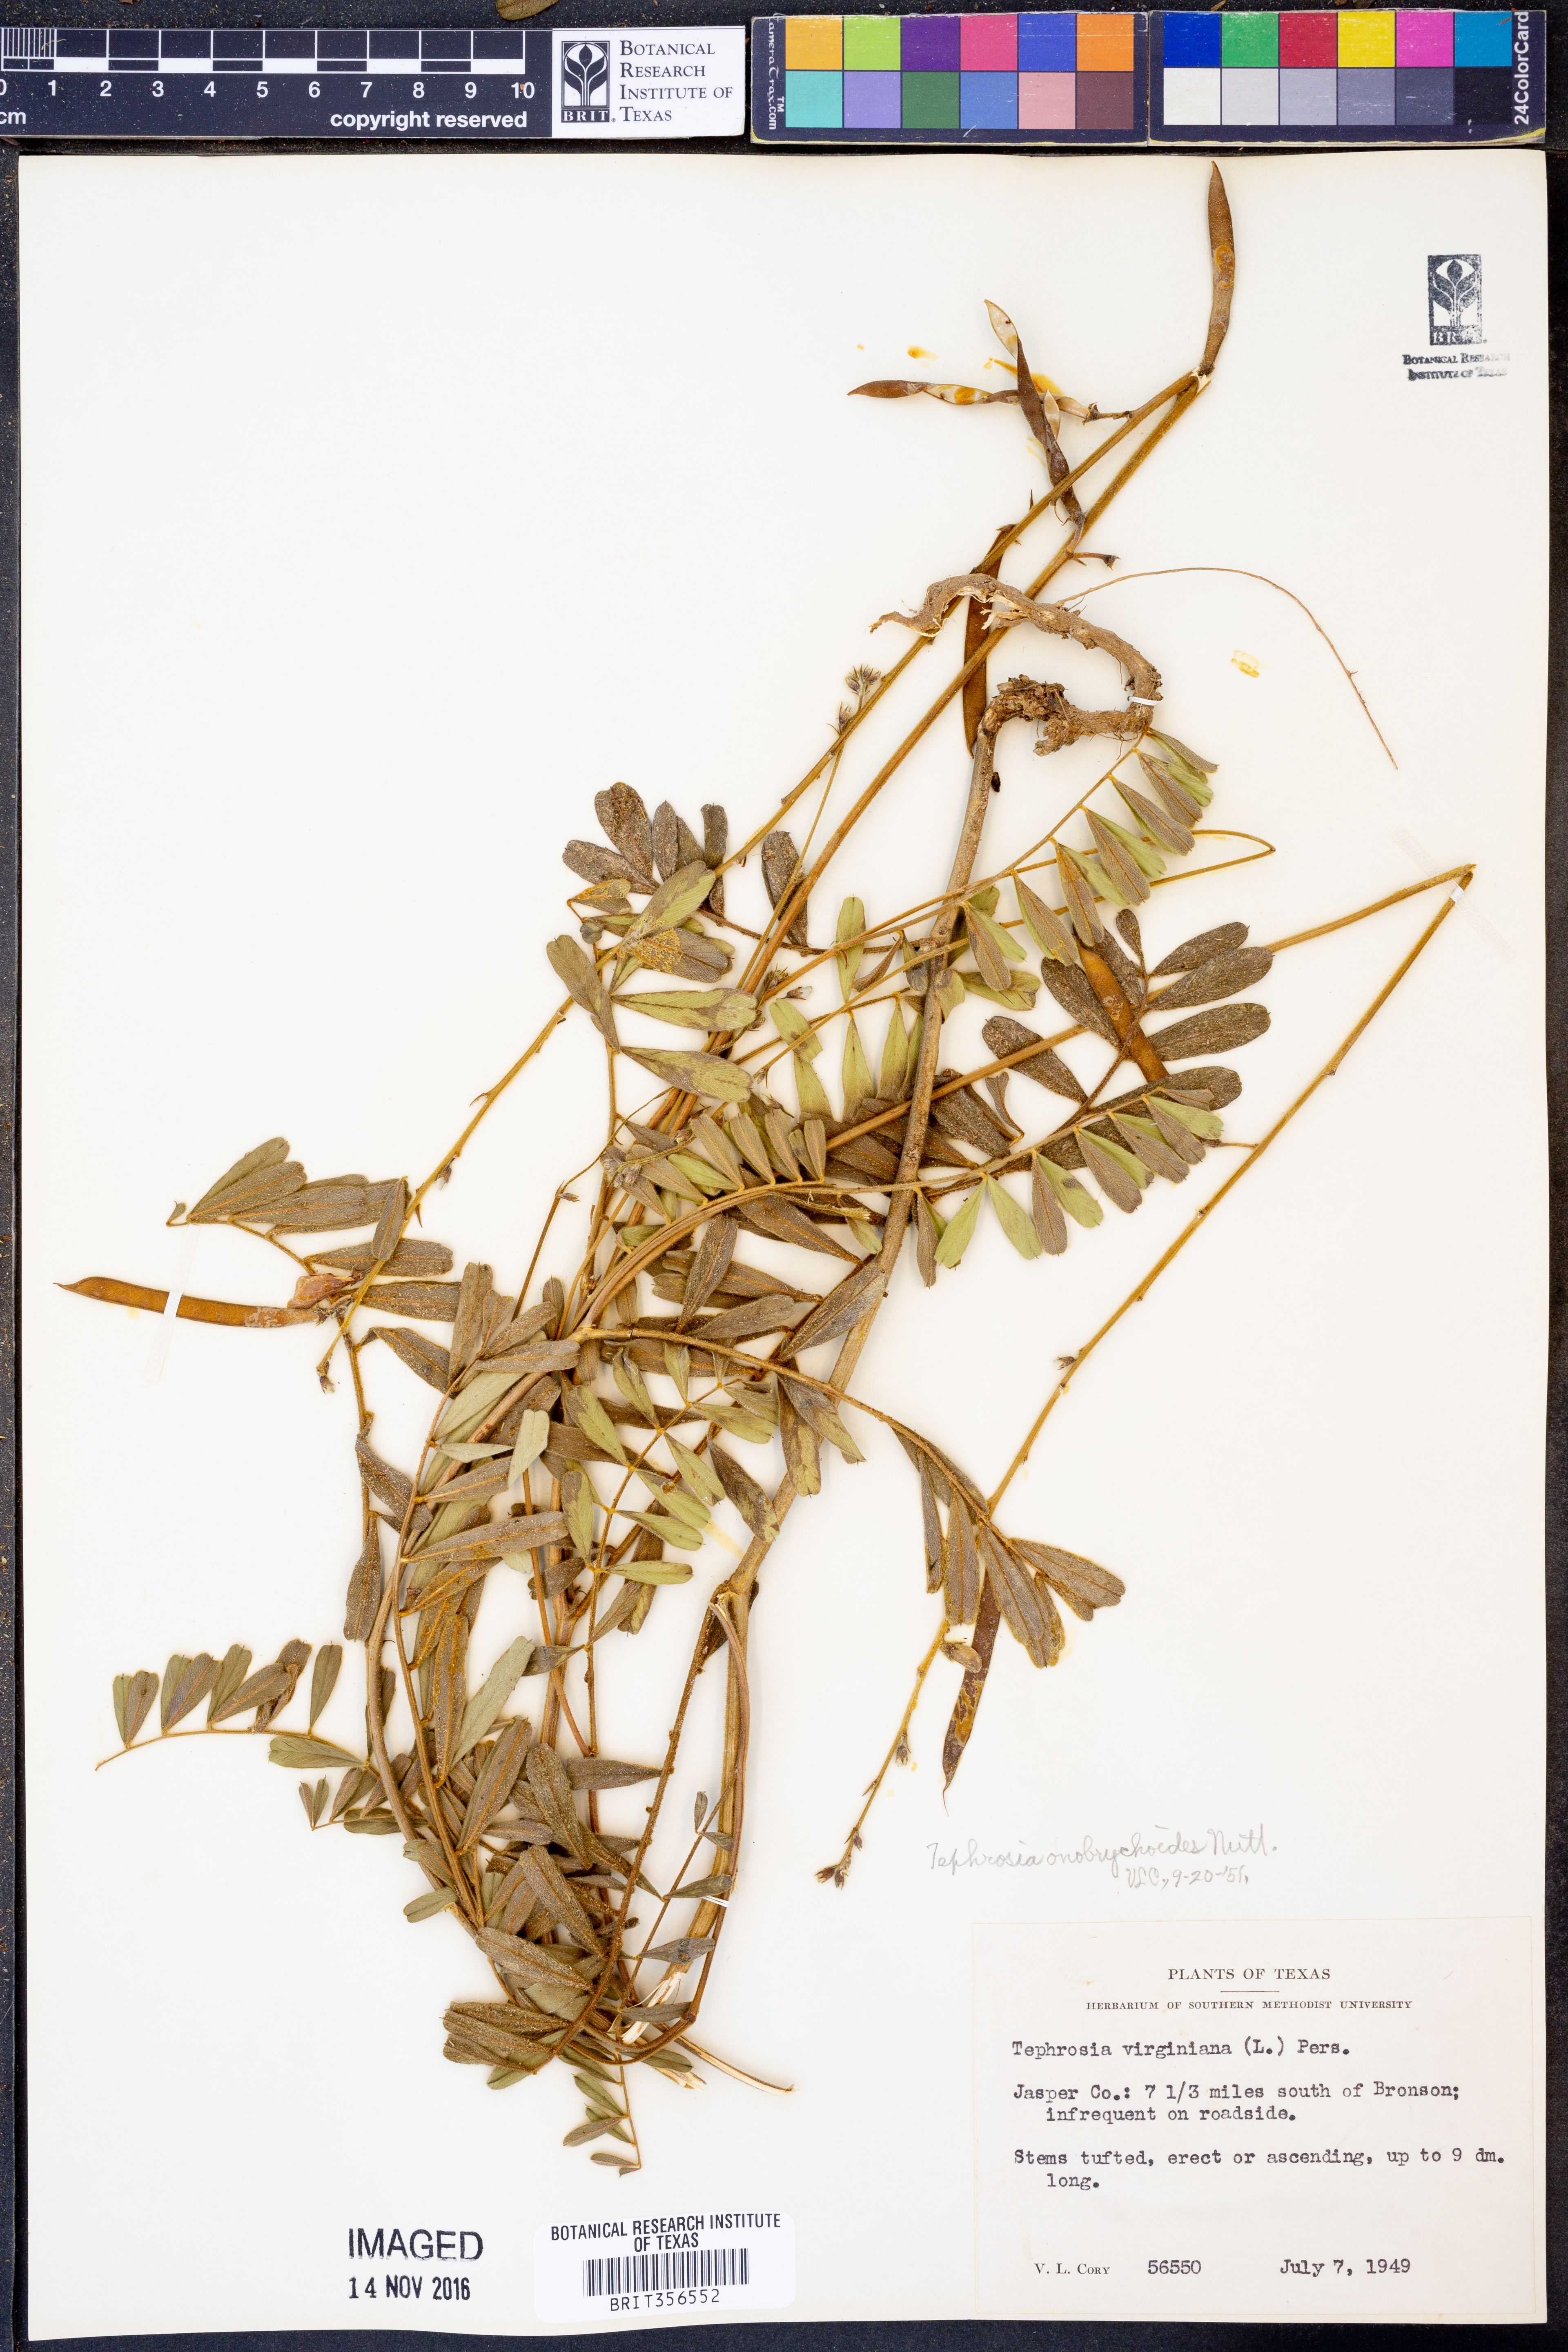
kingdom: Plantae
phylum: Tracheophyta
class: Magnoliopsida
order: Fabales
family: Fabaceae
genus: Tephrosia
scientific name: Tephrosia onobrychoides
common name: Multi-bloom hoary-pea
